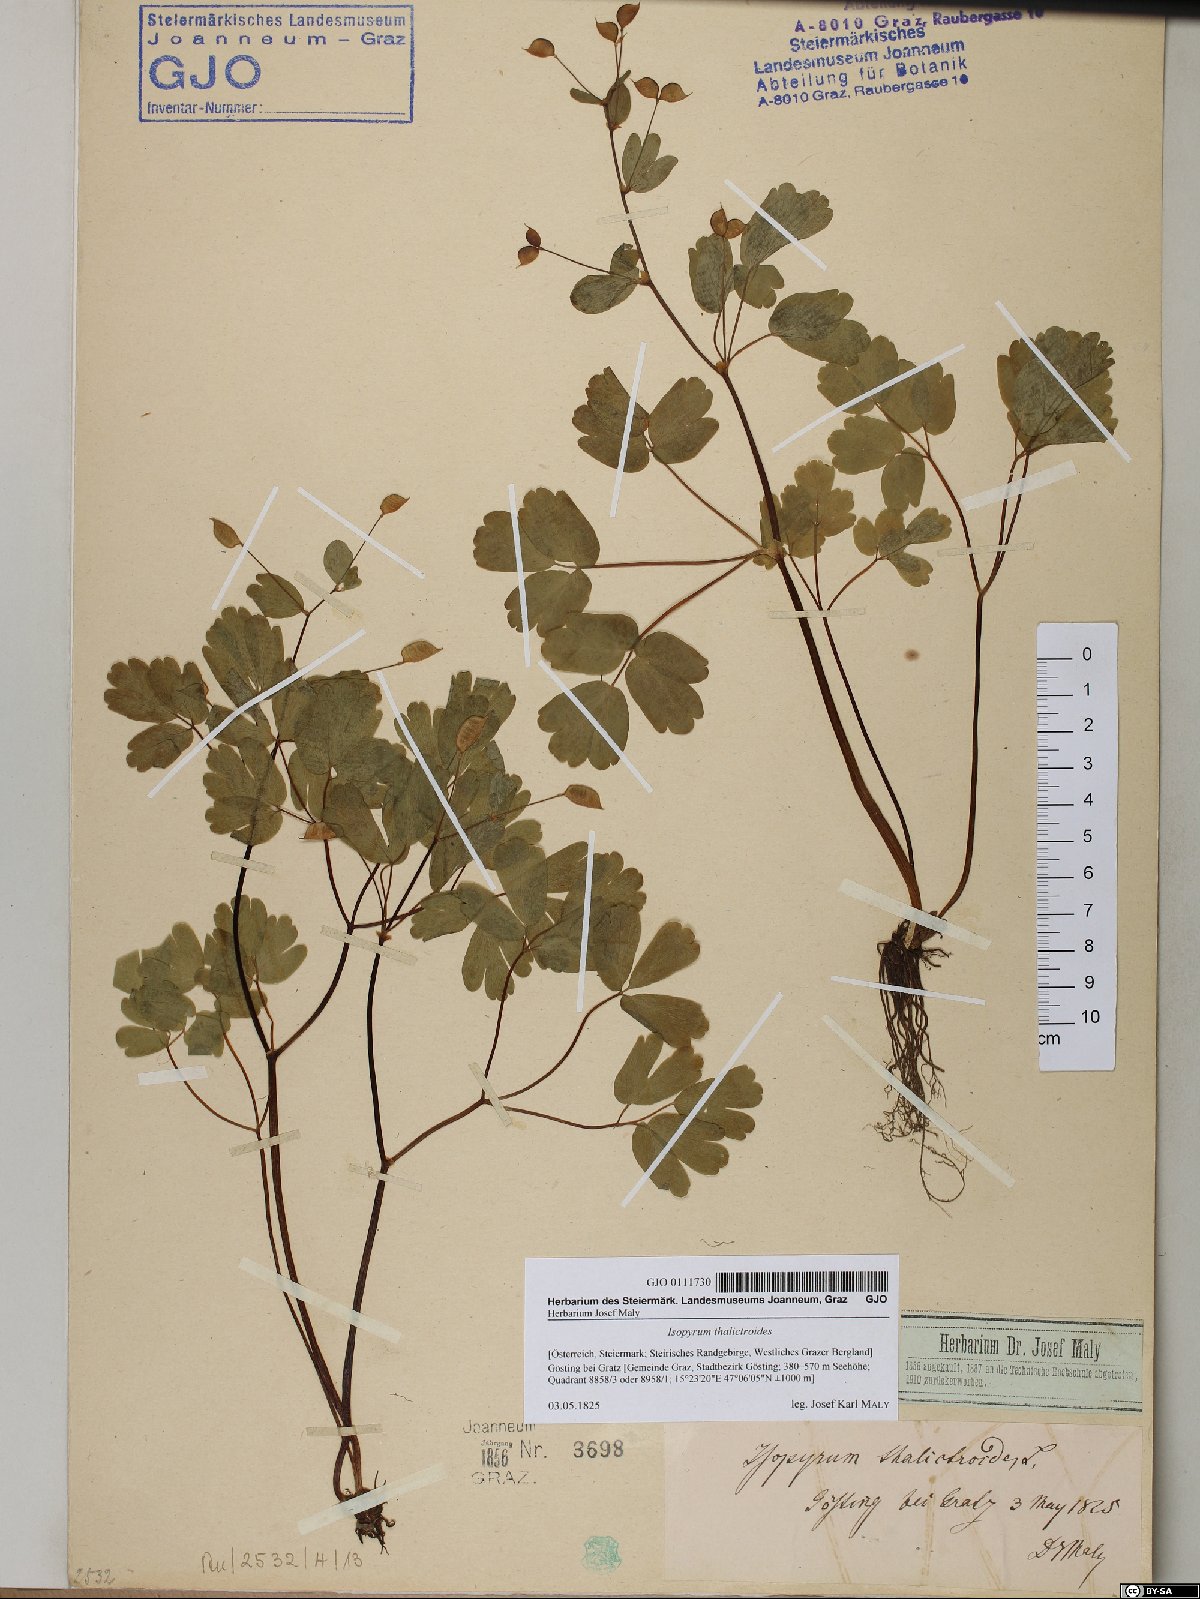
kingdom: Plantae
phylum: Tracheophyta
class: Magnoliopsida
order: Ranunculales
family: Ranunculaceae
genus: Isopyrum
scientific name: Isopyrum thalictroides
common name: Isopyrum
